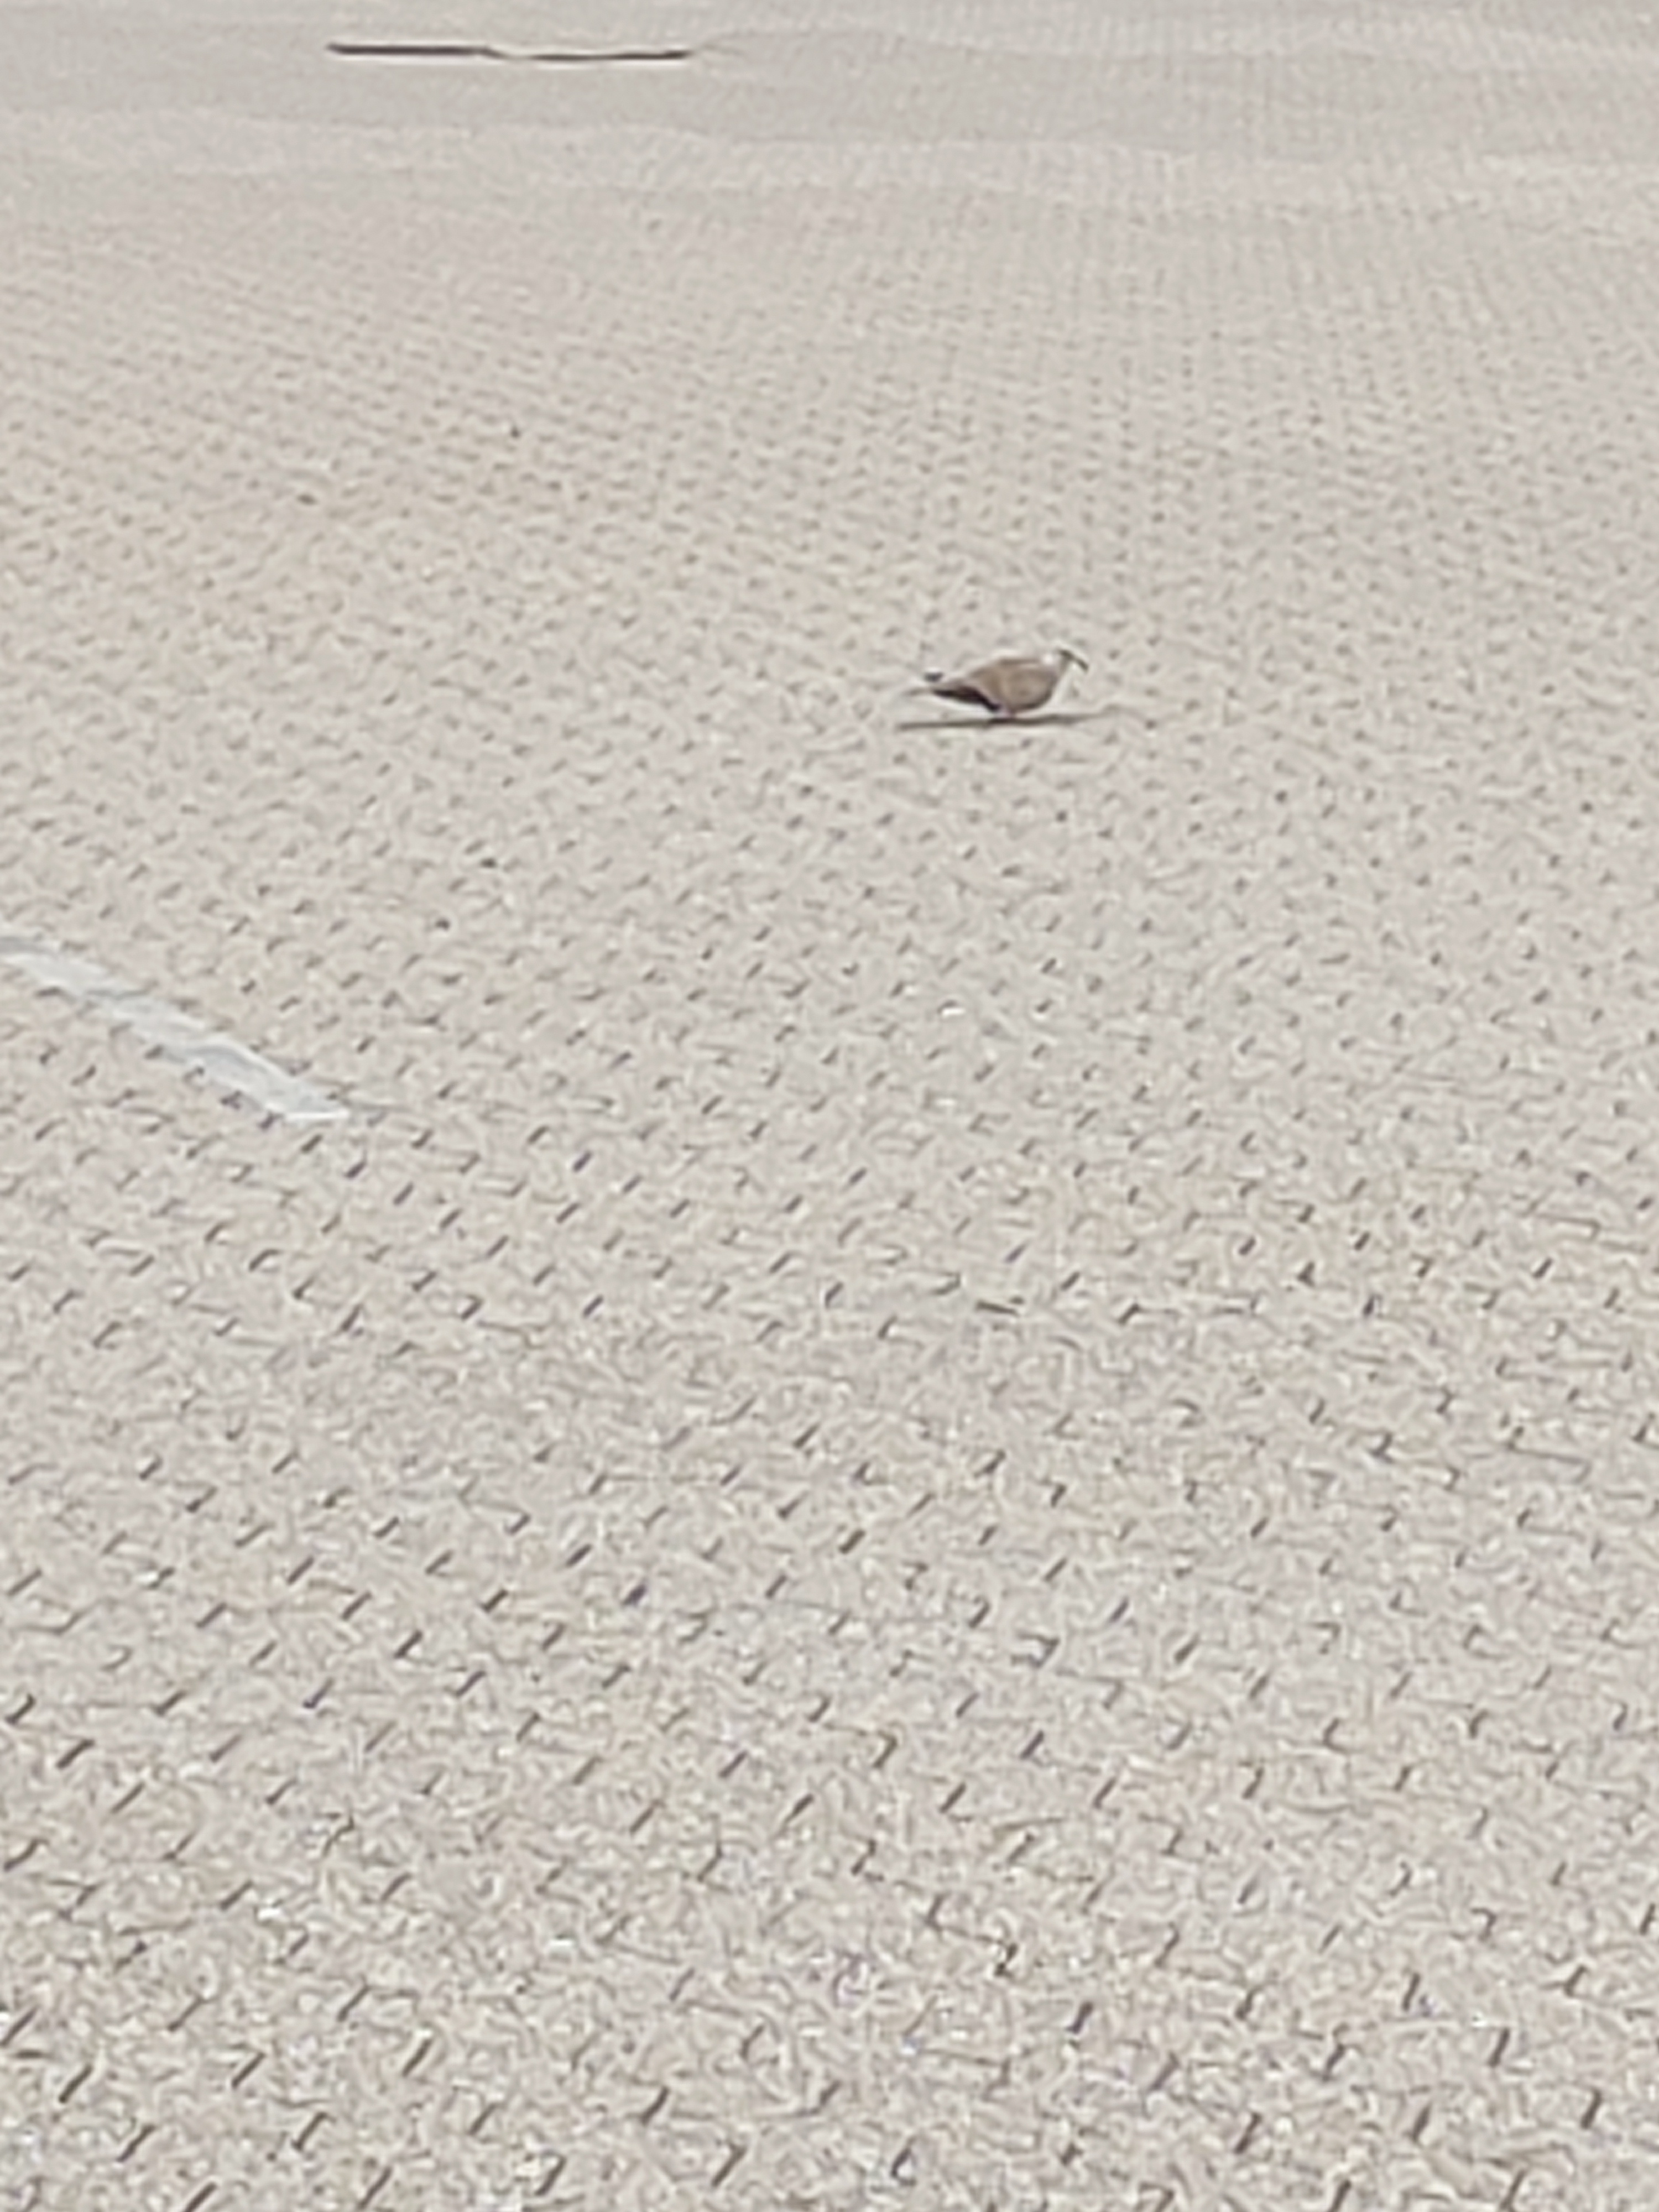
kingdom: Animalia
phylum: Chordata
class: Aves
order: Columbiformes
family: Columbidae
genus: Streptopelia
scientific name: Streptopelia decaocto
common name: Tyrkerdue
